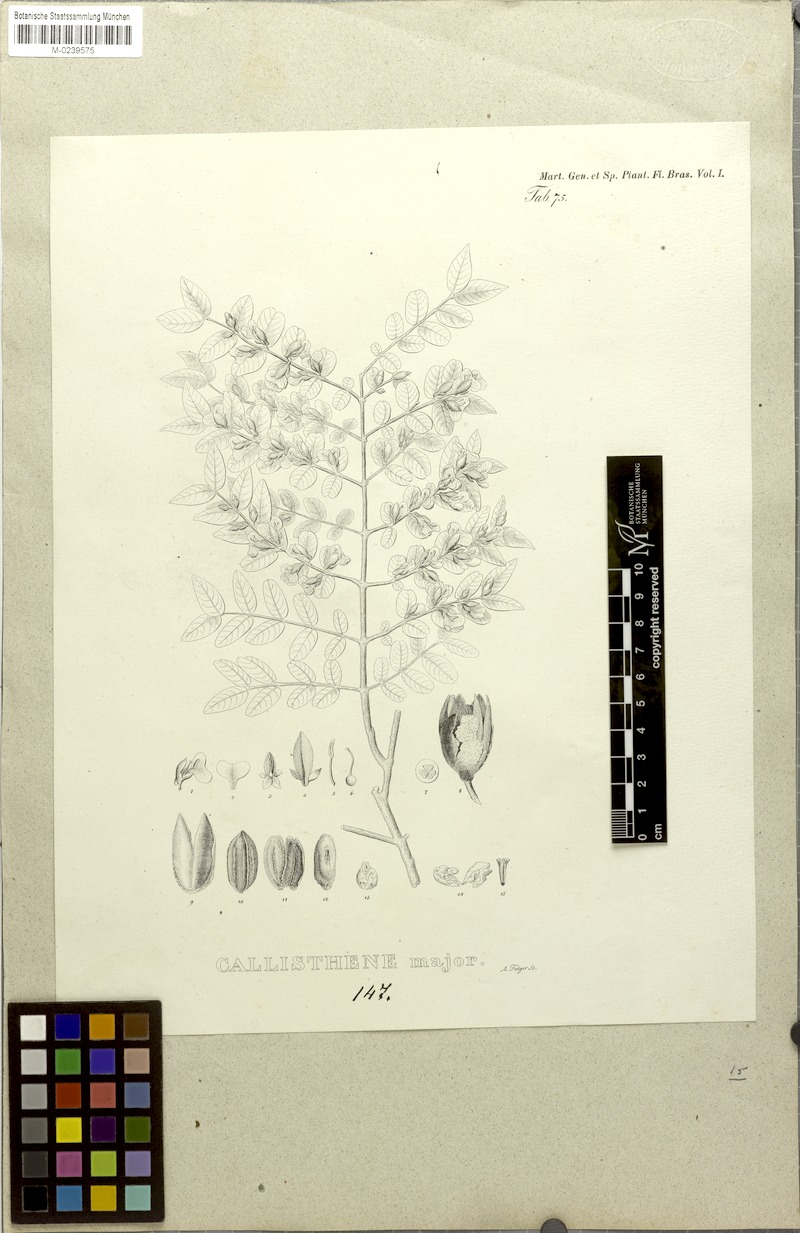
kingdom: Plantae
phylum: Tracheophyta
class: Magnoliopsida
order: Myrtales
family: Vochysiaceae
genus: Callisthene
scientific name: Callisthene major
